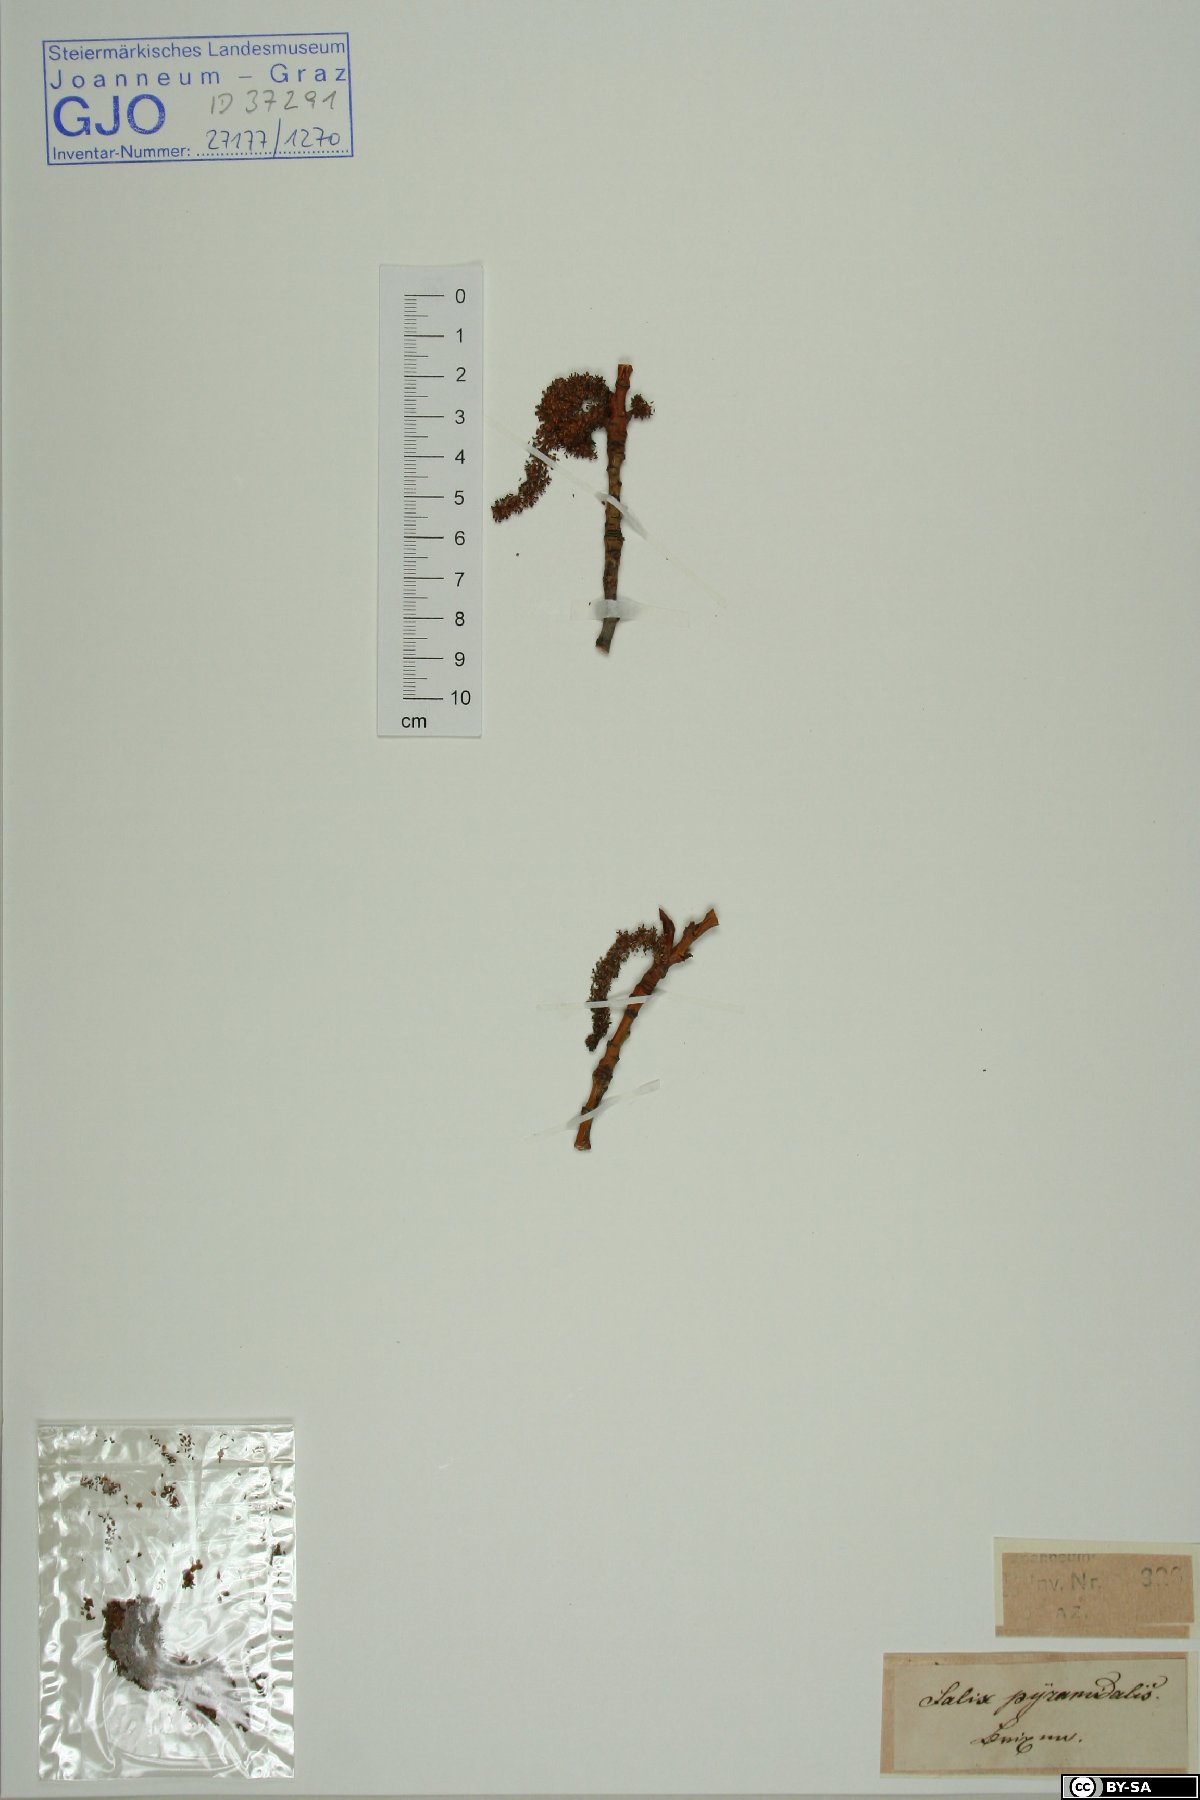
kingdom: Plantae
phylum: Tracheophyta
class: Magnoliopsida
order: Malpighiales
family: Salicaceae
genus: Salix
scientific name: Salix pyramidalis
